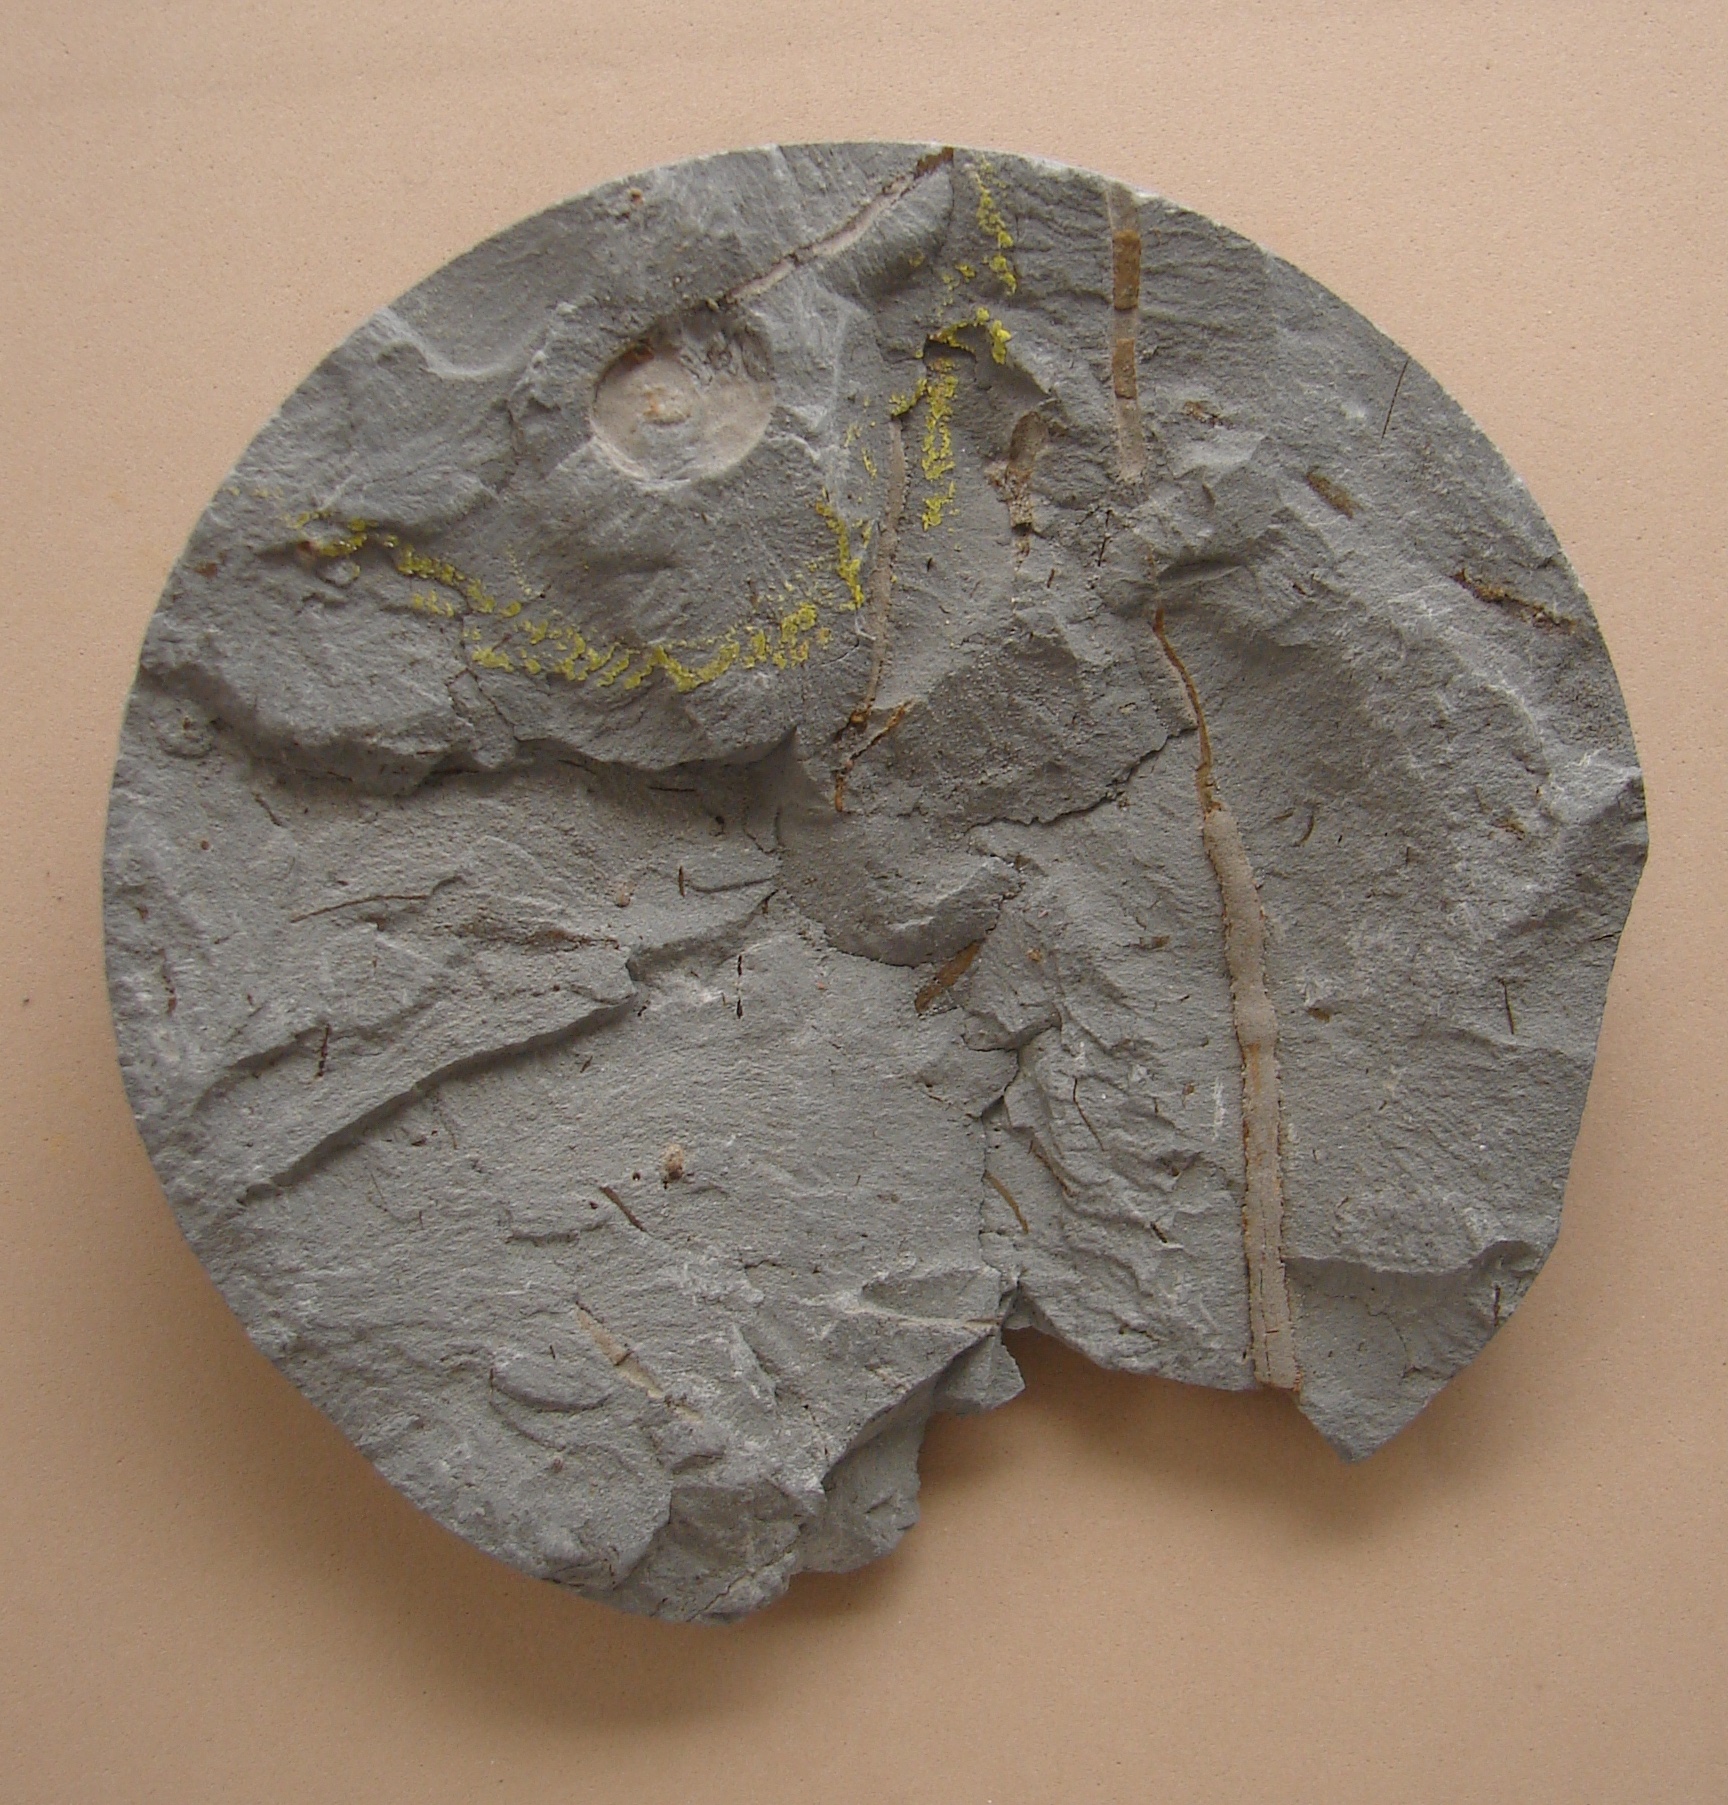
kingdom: Animalia
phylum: Mollusca
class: Cephalopoda
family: Arietitidae
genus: Euagassiceras
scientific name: Euagassiceras Ammonites striaries
